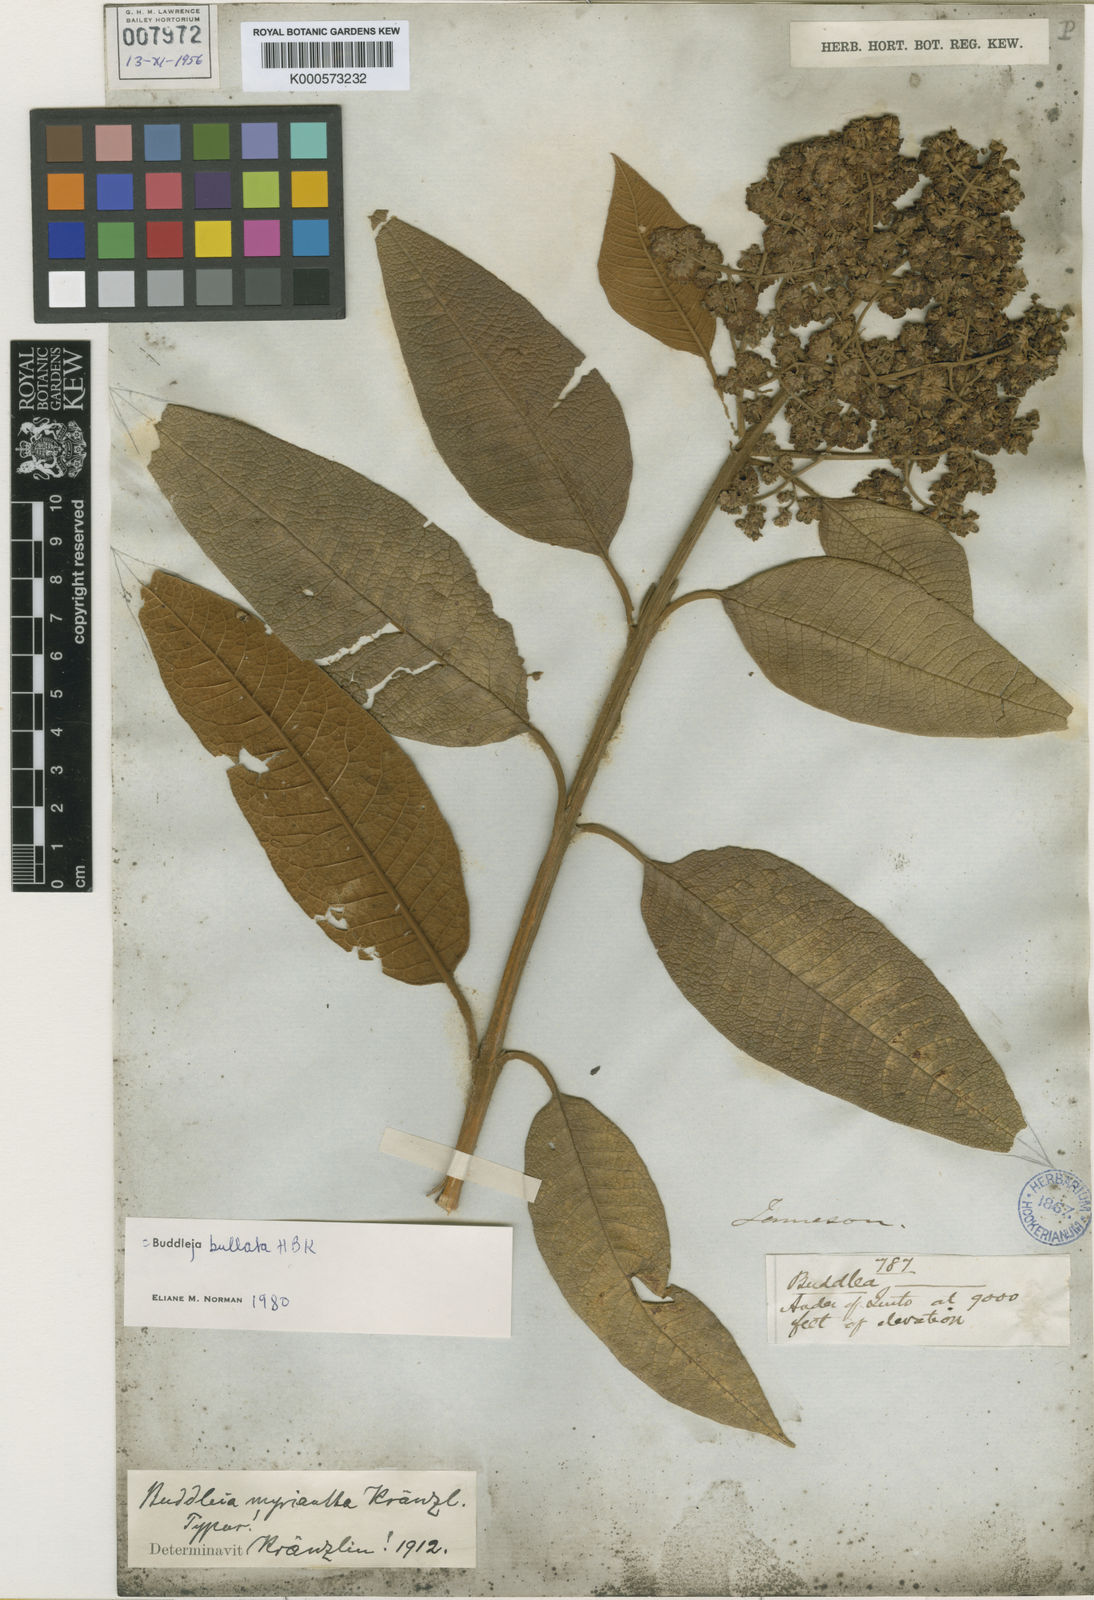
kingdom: Plantae
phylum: Tracheophyta
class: Magnoliopsida
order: Lamiales
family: Scrophulariaceae
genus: Buddleja
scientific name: Buddleja bullata
